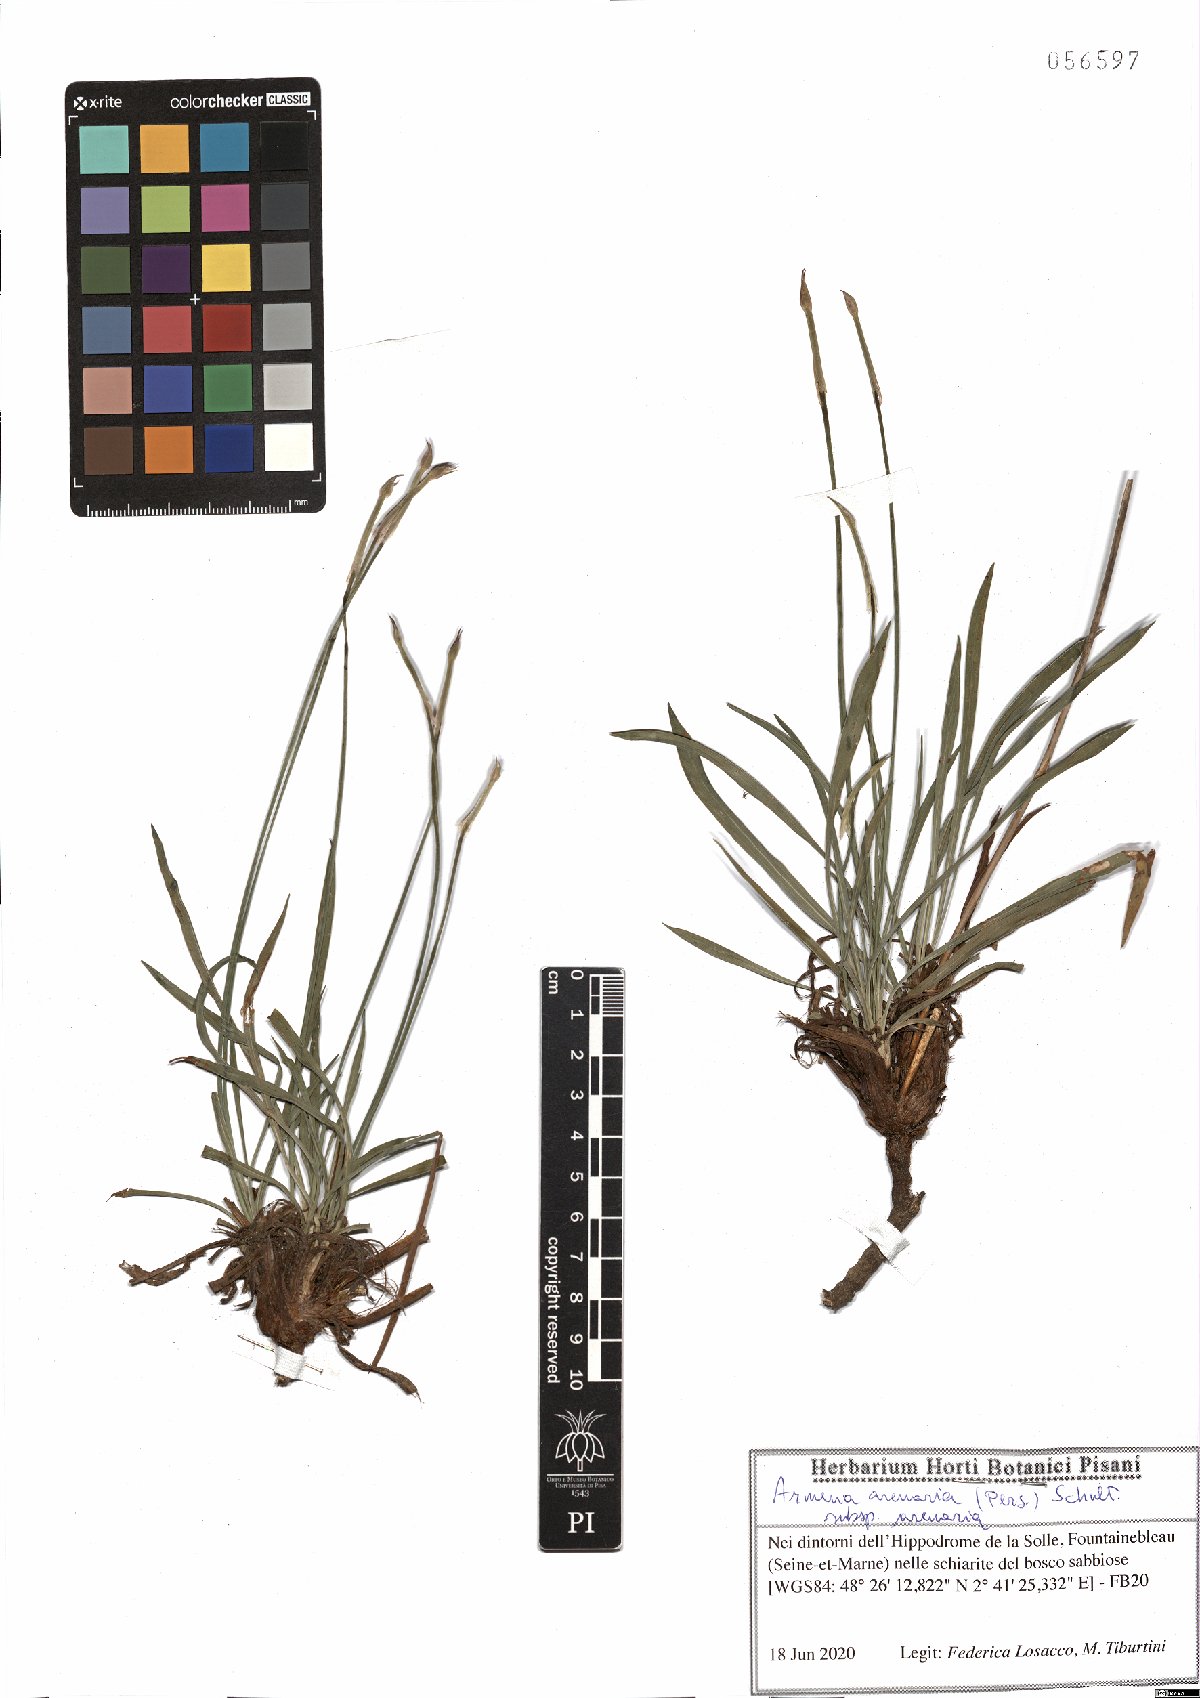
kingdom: Plantae
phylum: Tracheophyta
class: Magnoliopsida
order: Caryophyllales
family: Plumbaginaceae
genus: Armeria
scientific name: Armeria arenaria
